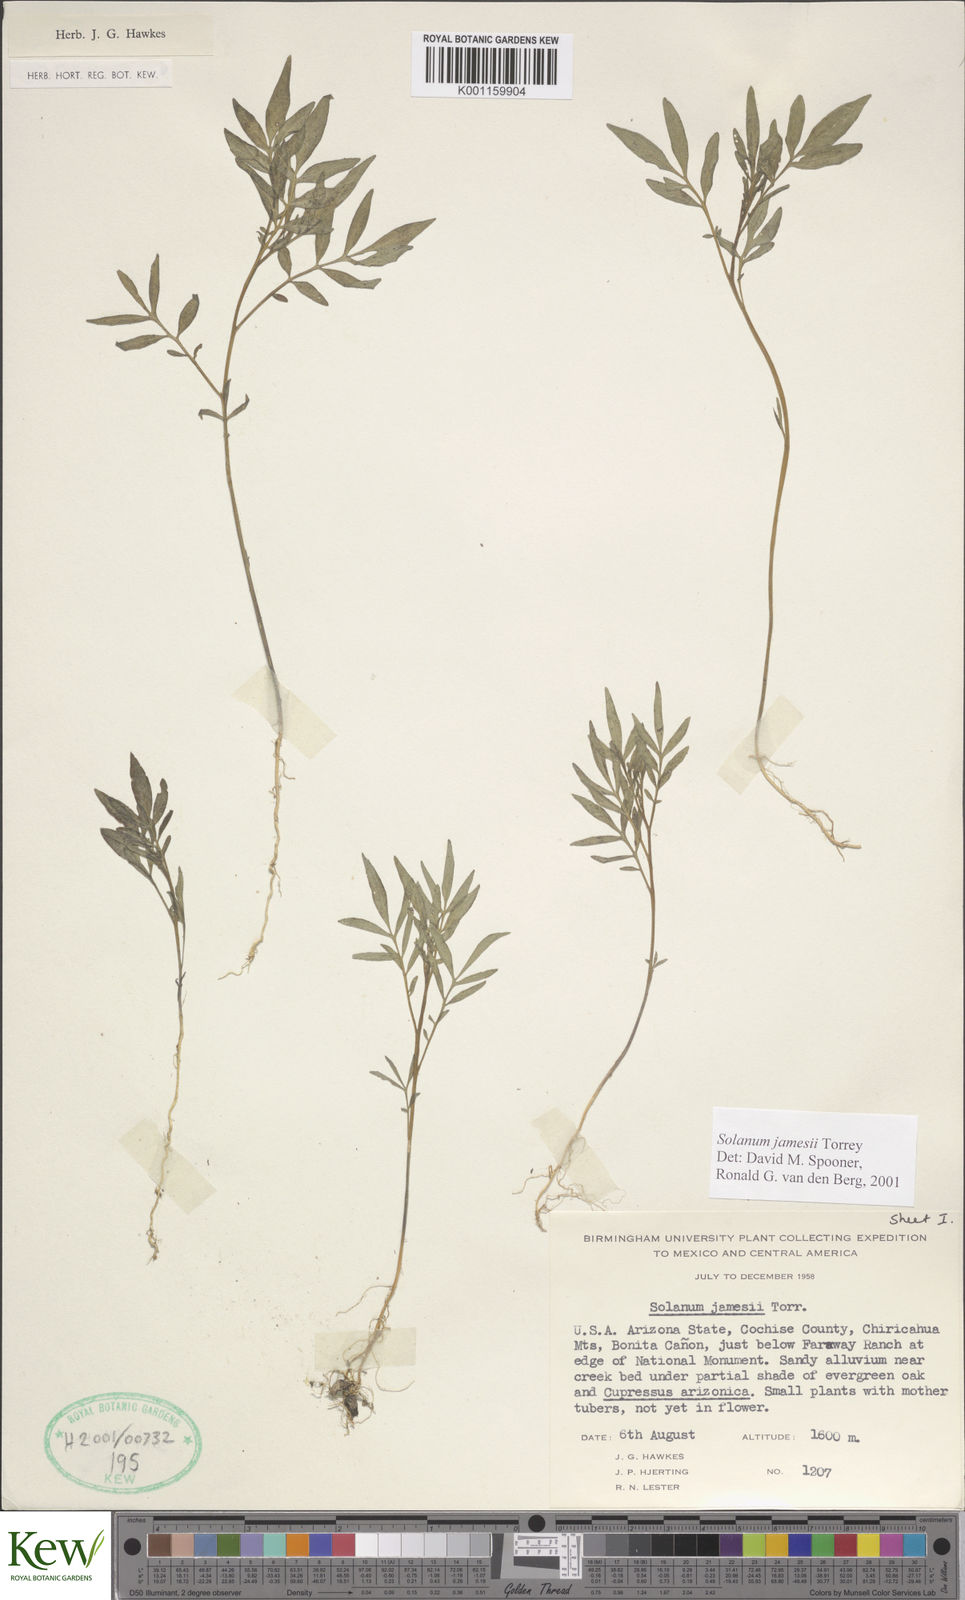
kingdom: Plantae
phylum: Tracheophyta
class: Magnoliopsida
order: Solanales
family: Solanaceae
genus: Solanum
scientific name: Solanum jamesii
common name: Wild potato
